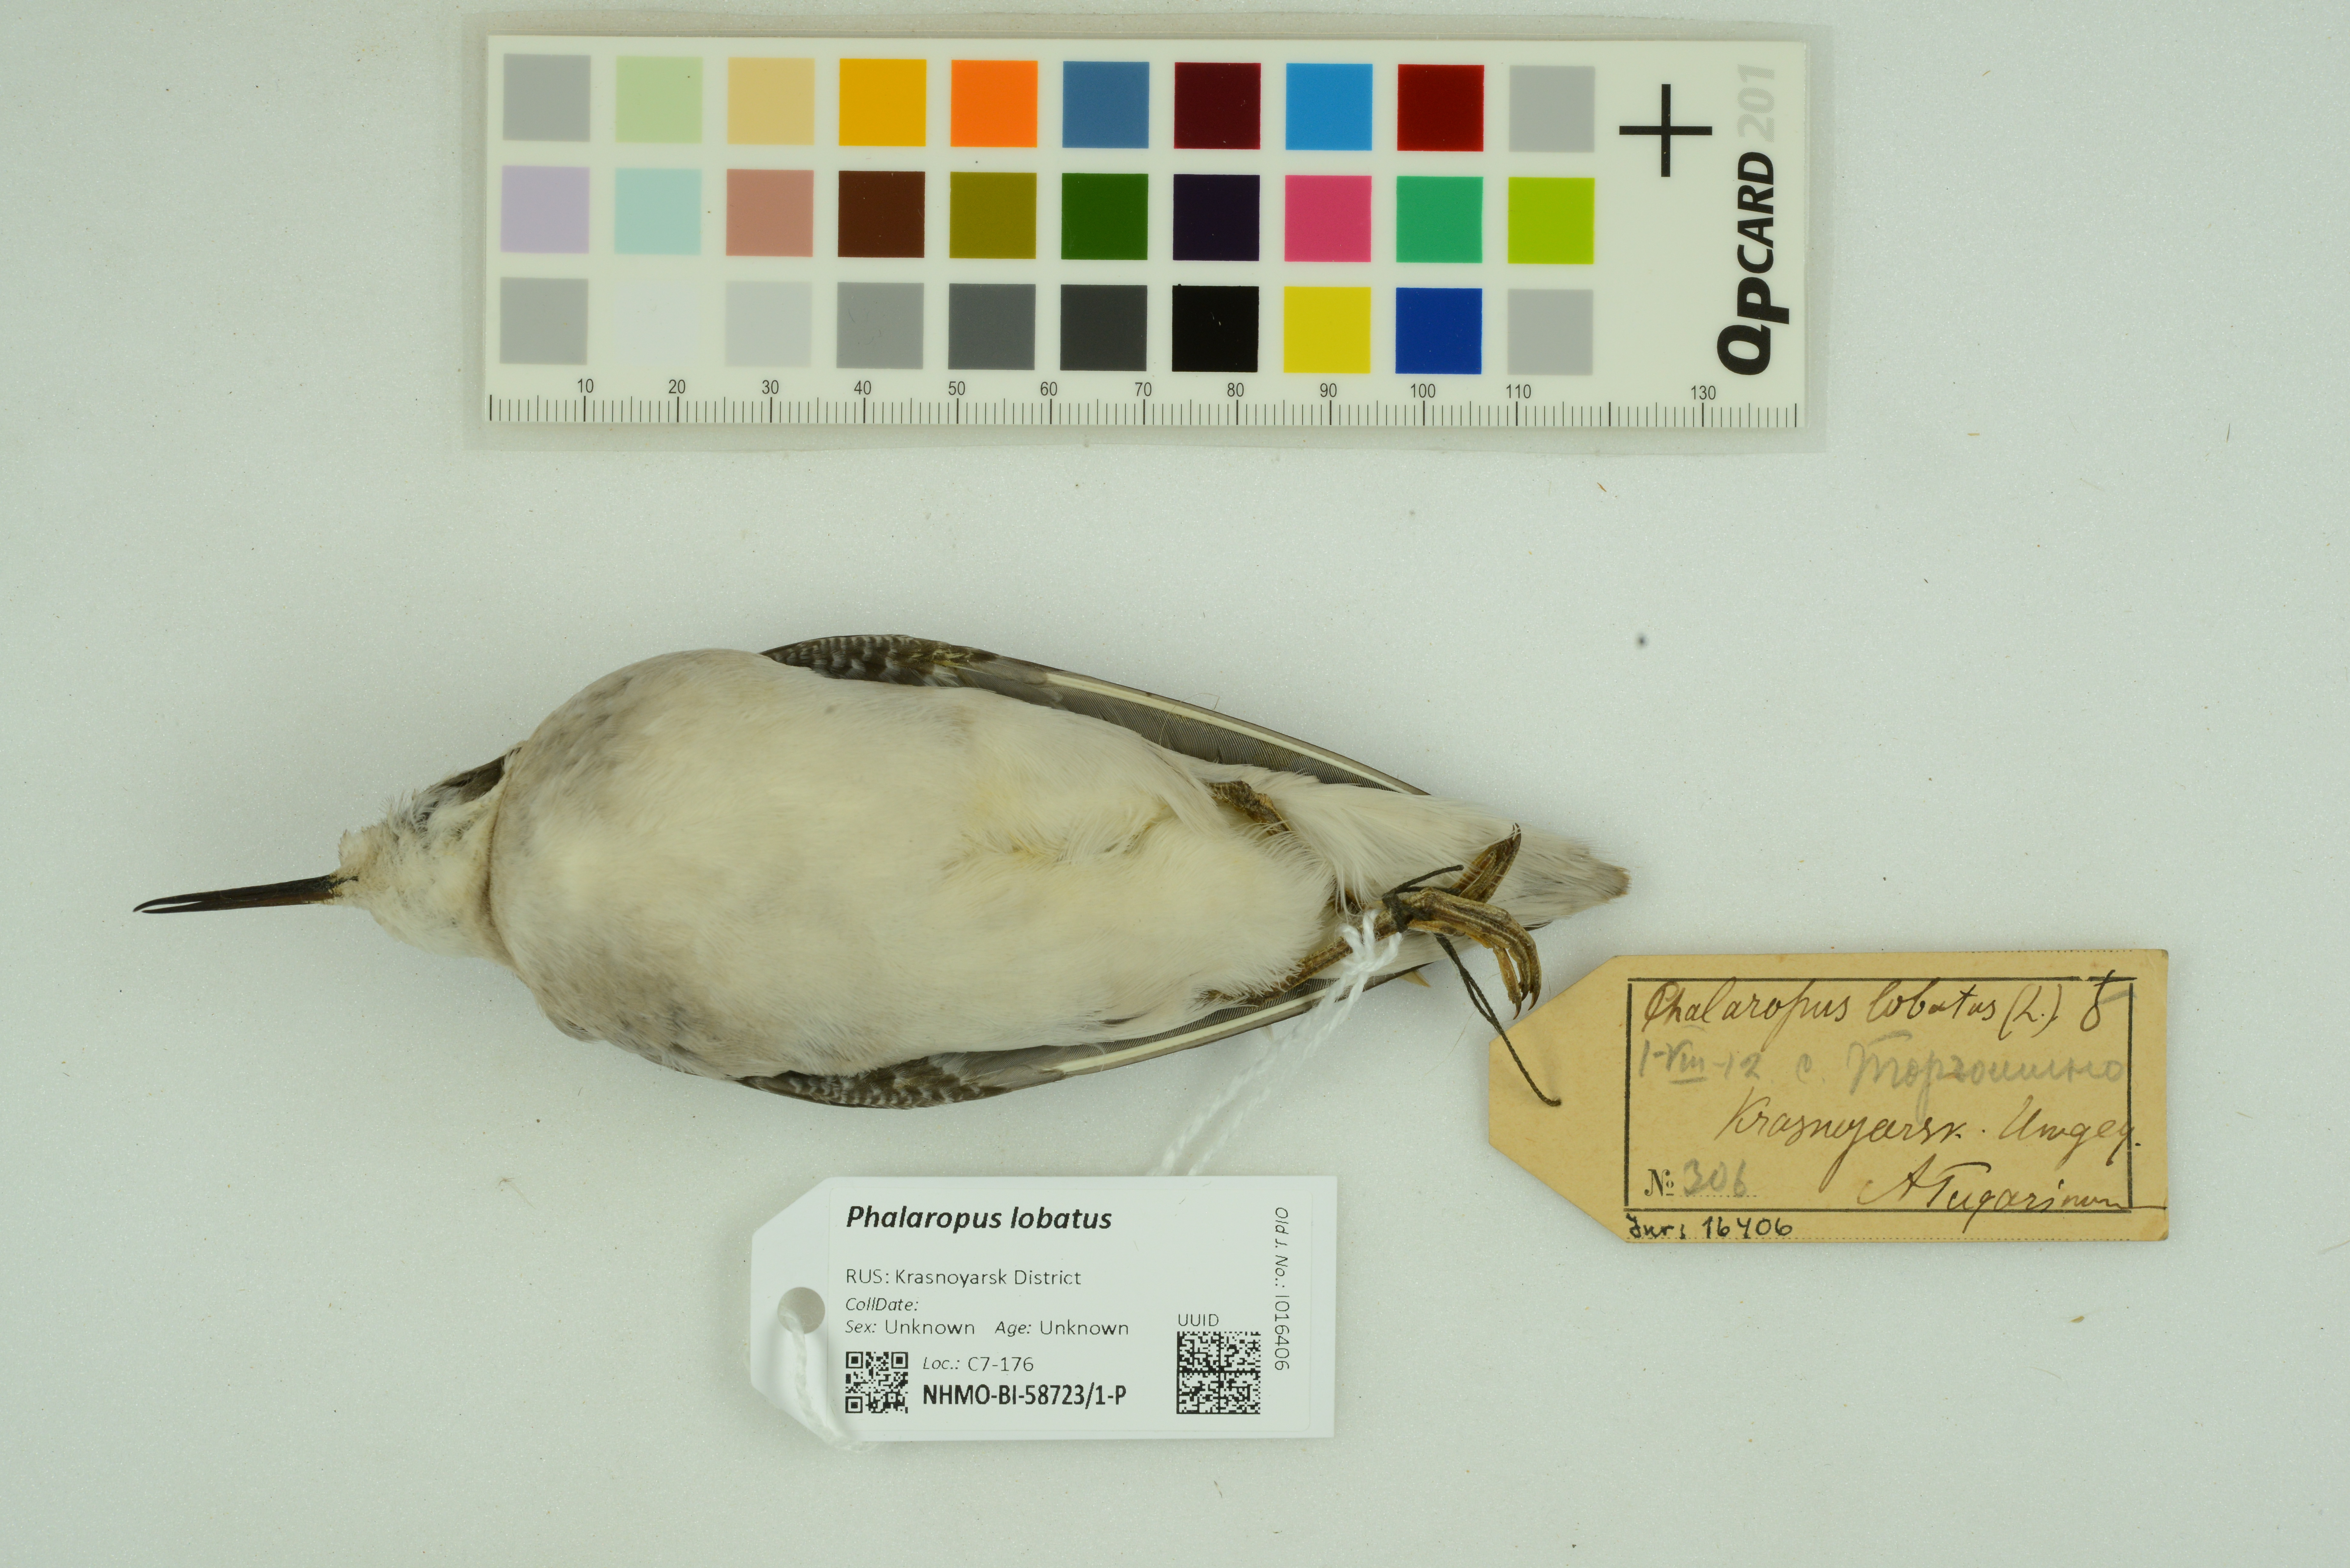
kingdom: Animalia
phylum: Chordata
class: Aves
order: Charadriiformes
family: Scolopacidae
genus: Phalaropus
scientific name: Phalaropus lobatus
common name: Red-necked phalarope
